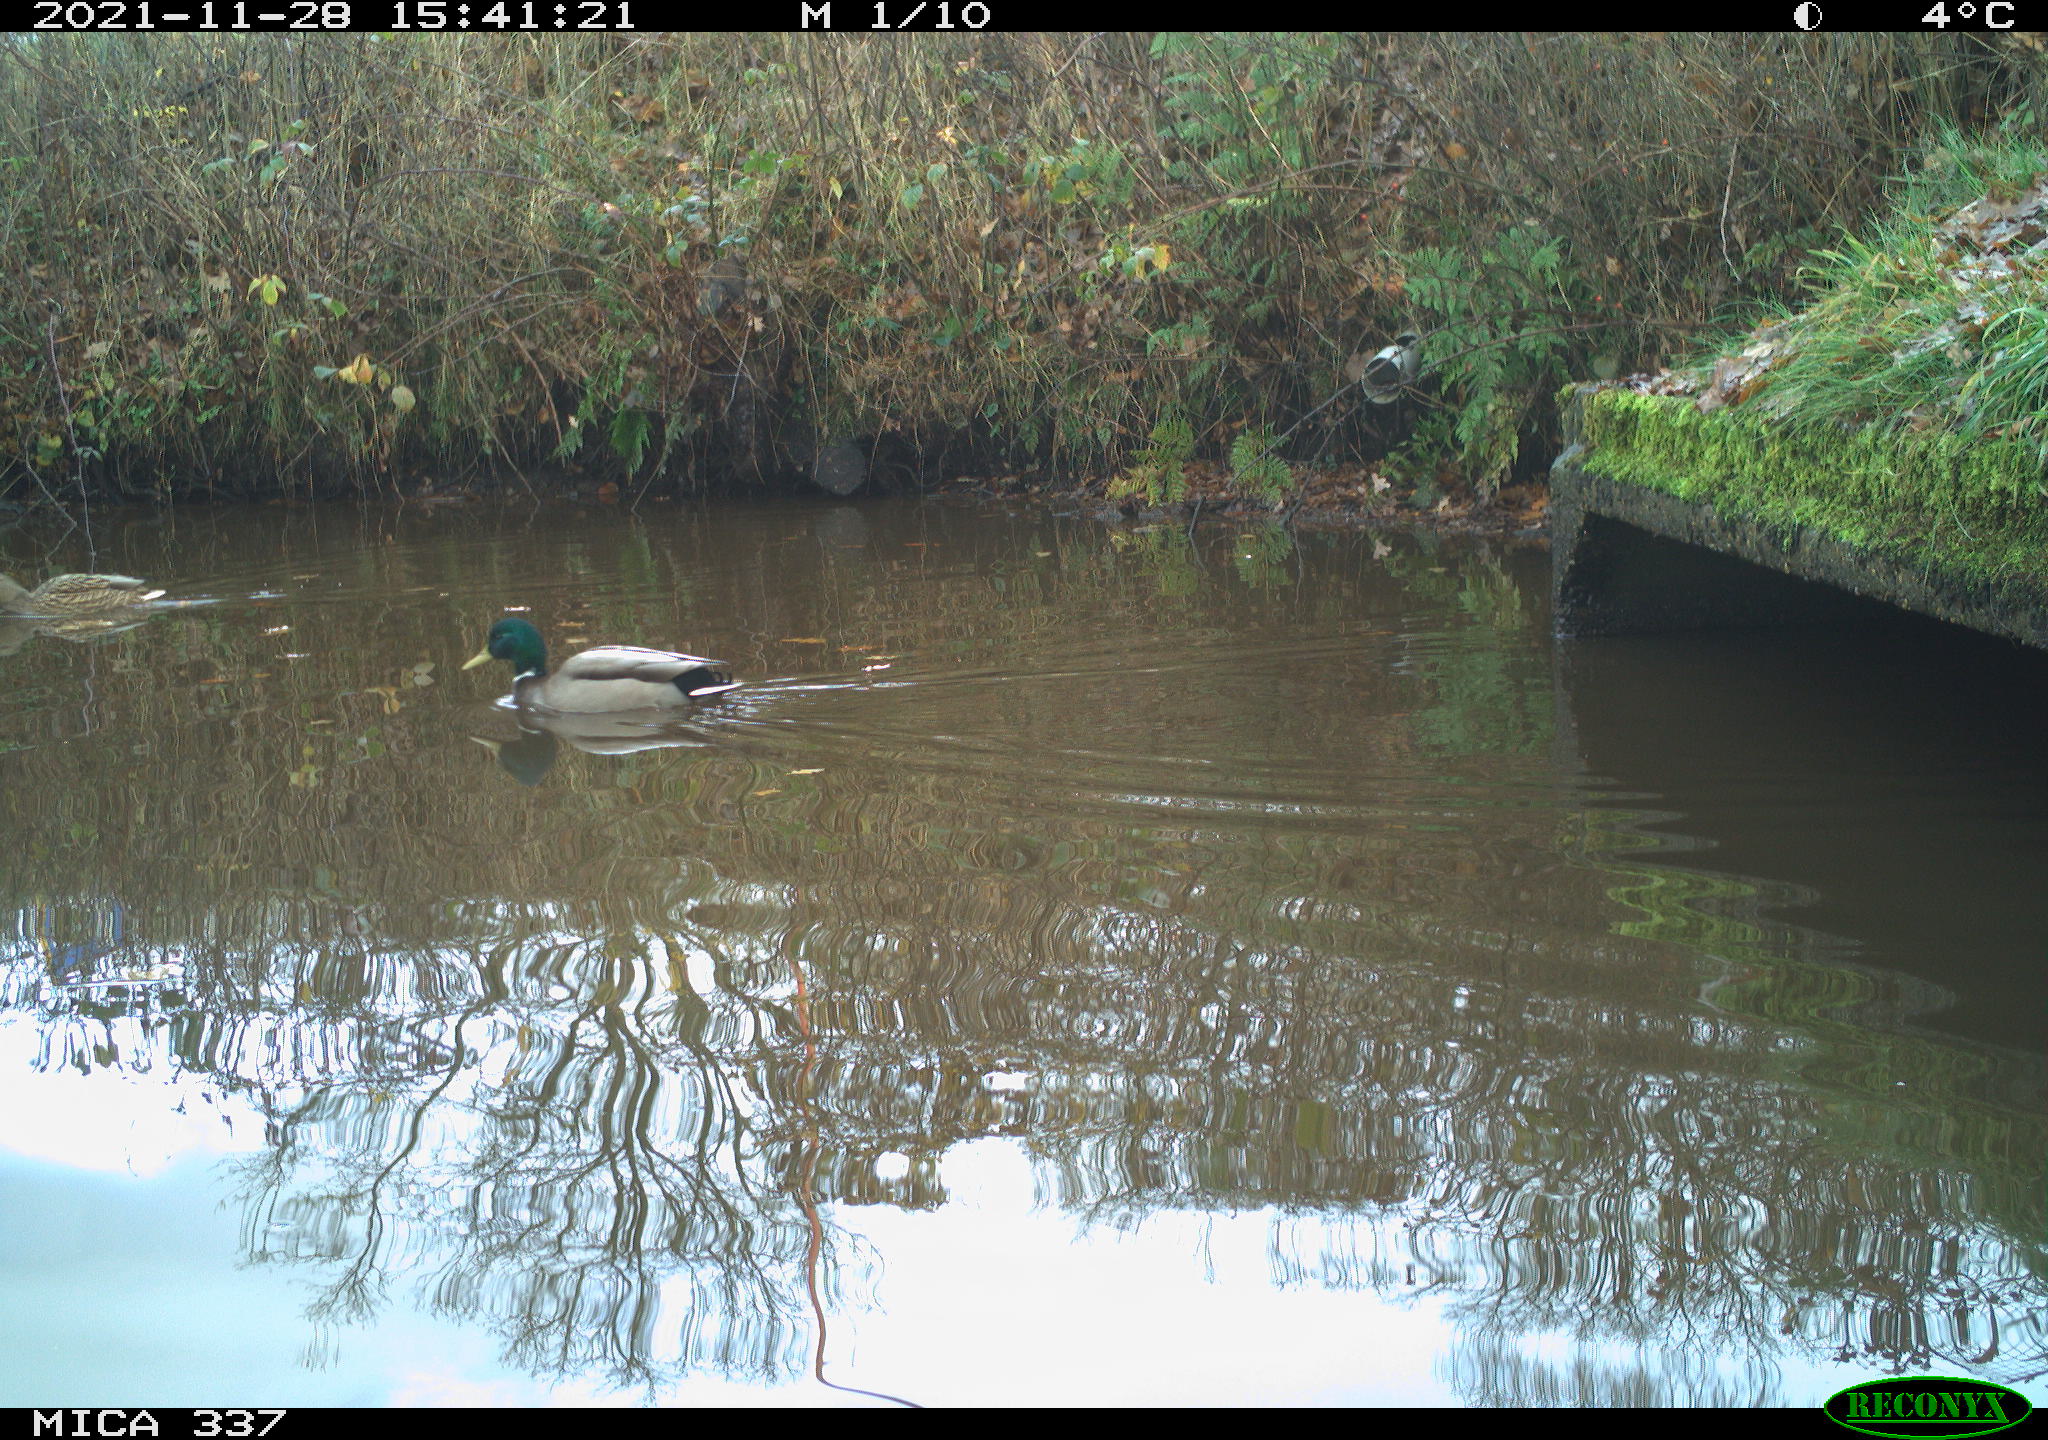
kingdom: Animalia
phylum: Chordata
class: Aves
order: Anseriformes
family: Anatidae
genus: Anas
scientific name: Anas platyrhynchos
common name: Mallard
